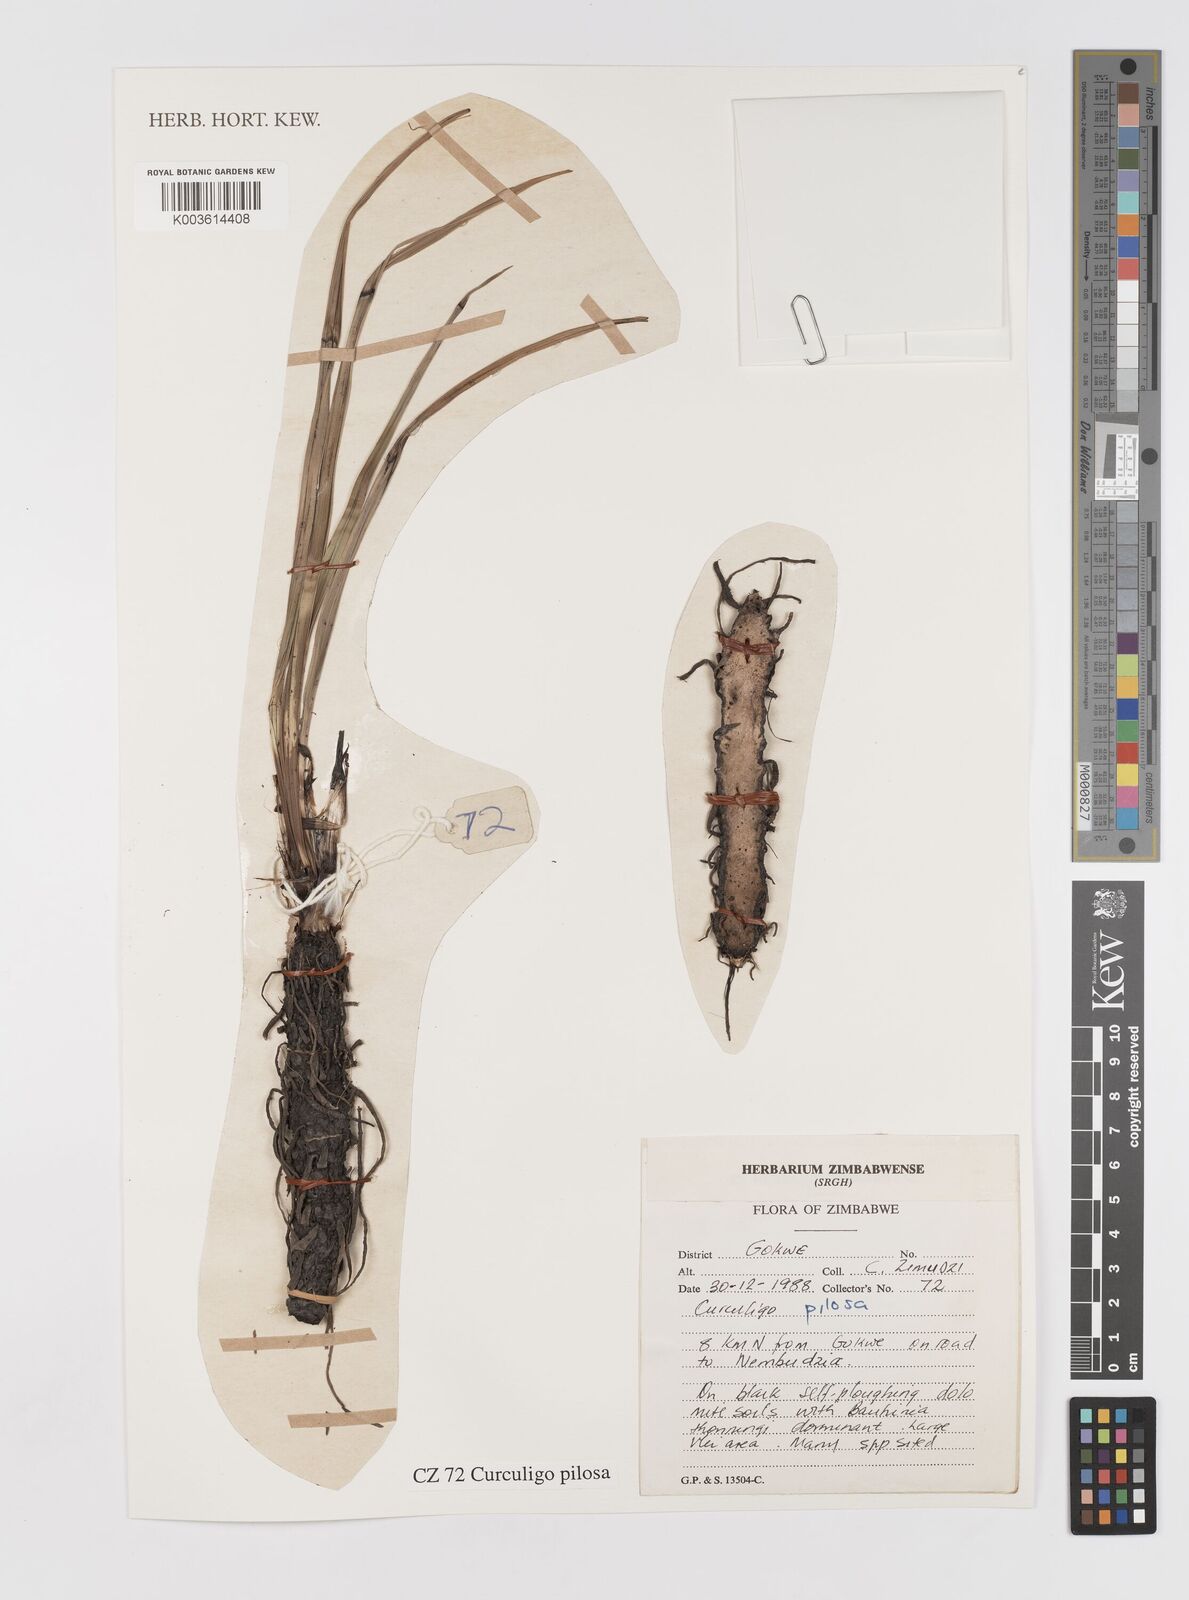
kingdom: Plantae
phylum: Tracheophyta
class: Liliopsida
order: Asparagales
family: Hypoxidaceae
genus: Curculigo
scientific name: Curculigo pilosa
